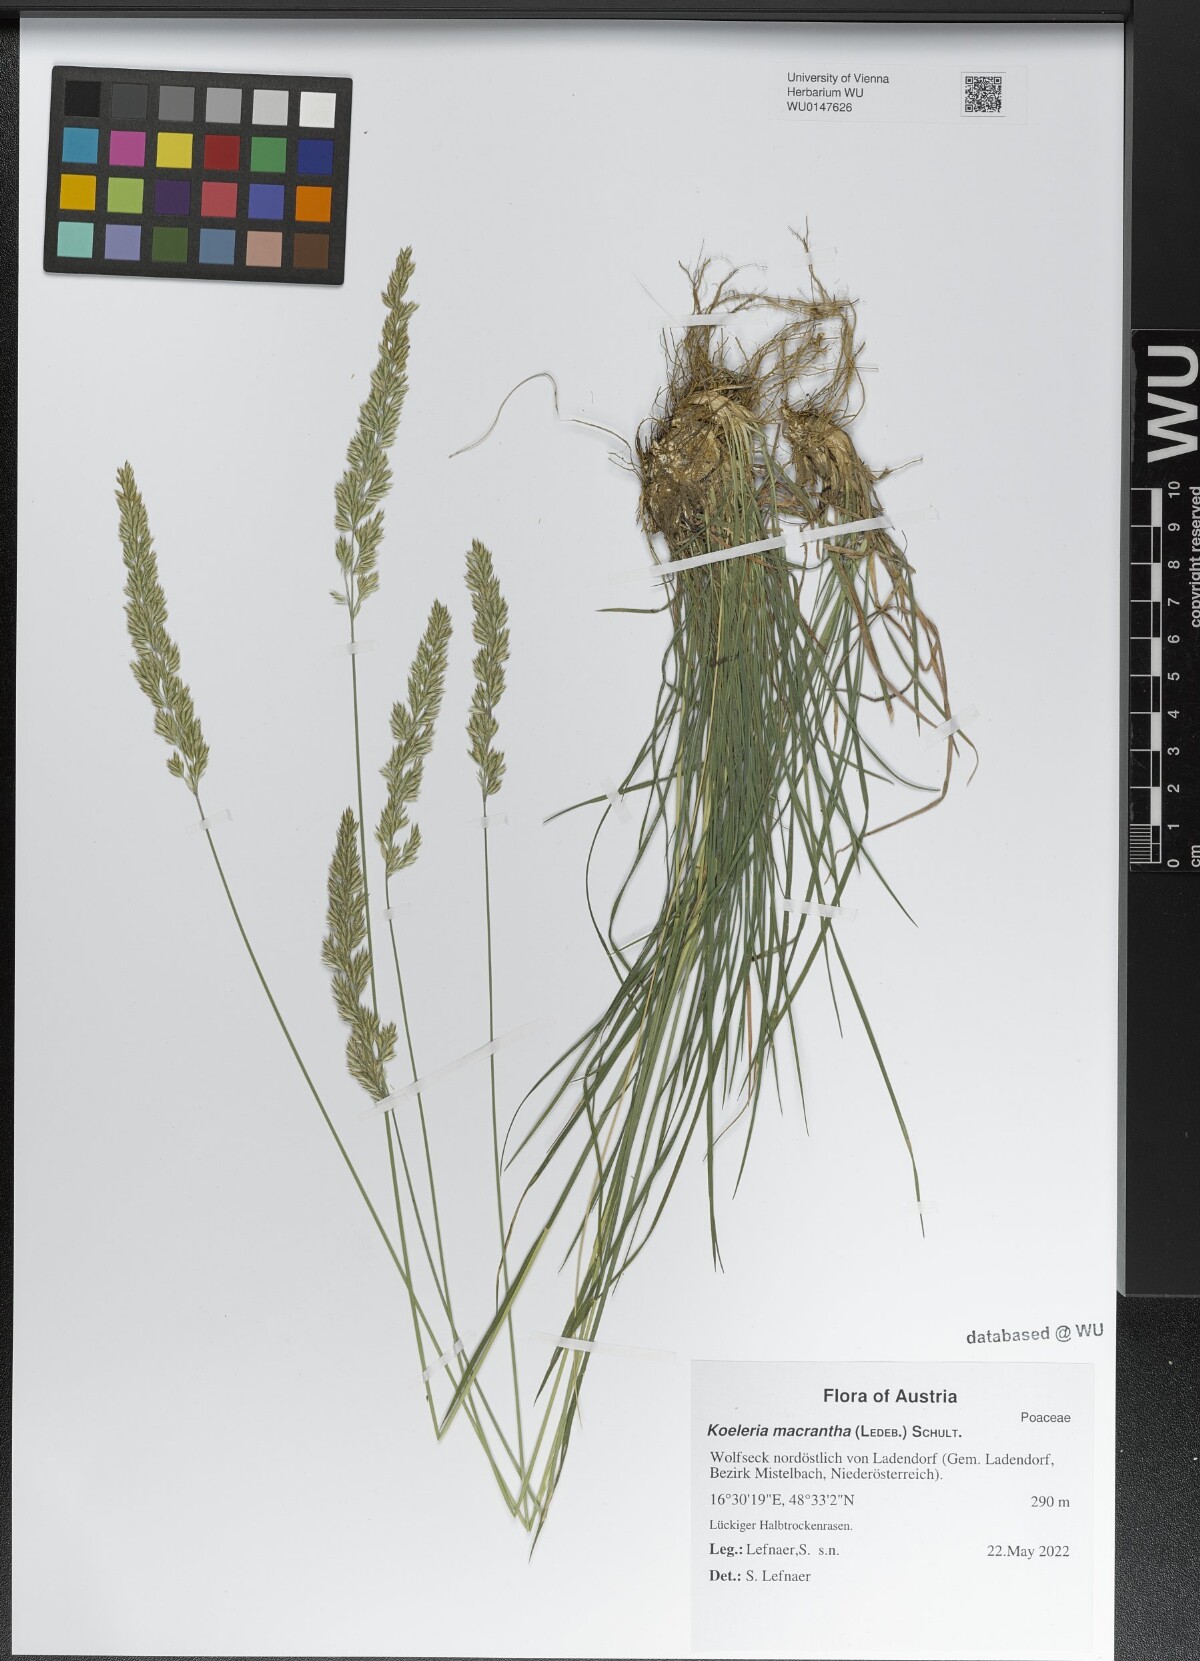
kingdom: Plantae
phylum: Tracheophyta
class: Liliopsida
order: Poales
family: Poaceae
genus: Koeleria
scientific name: Koeleria macrantha
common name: Crested hair-grass
